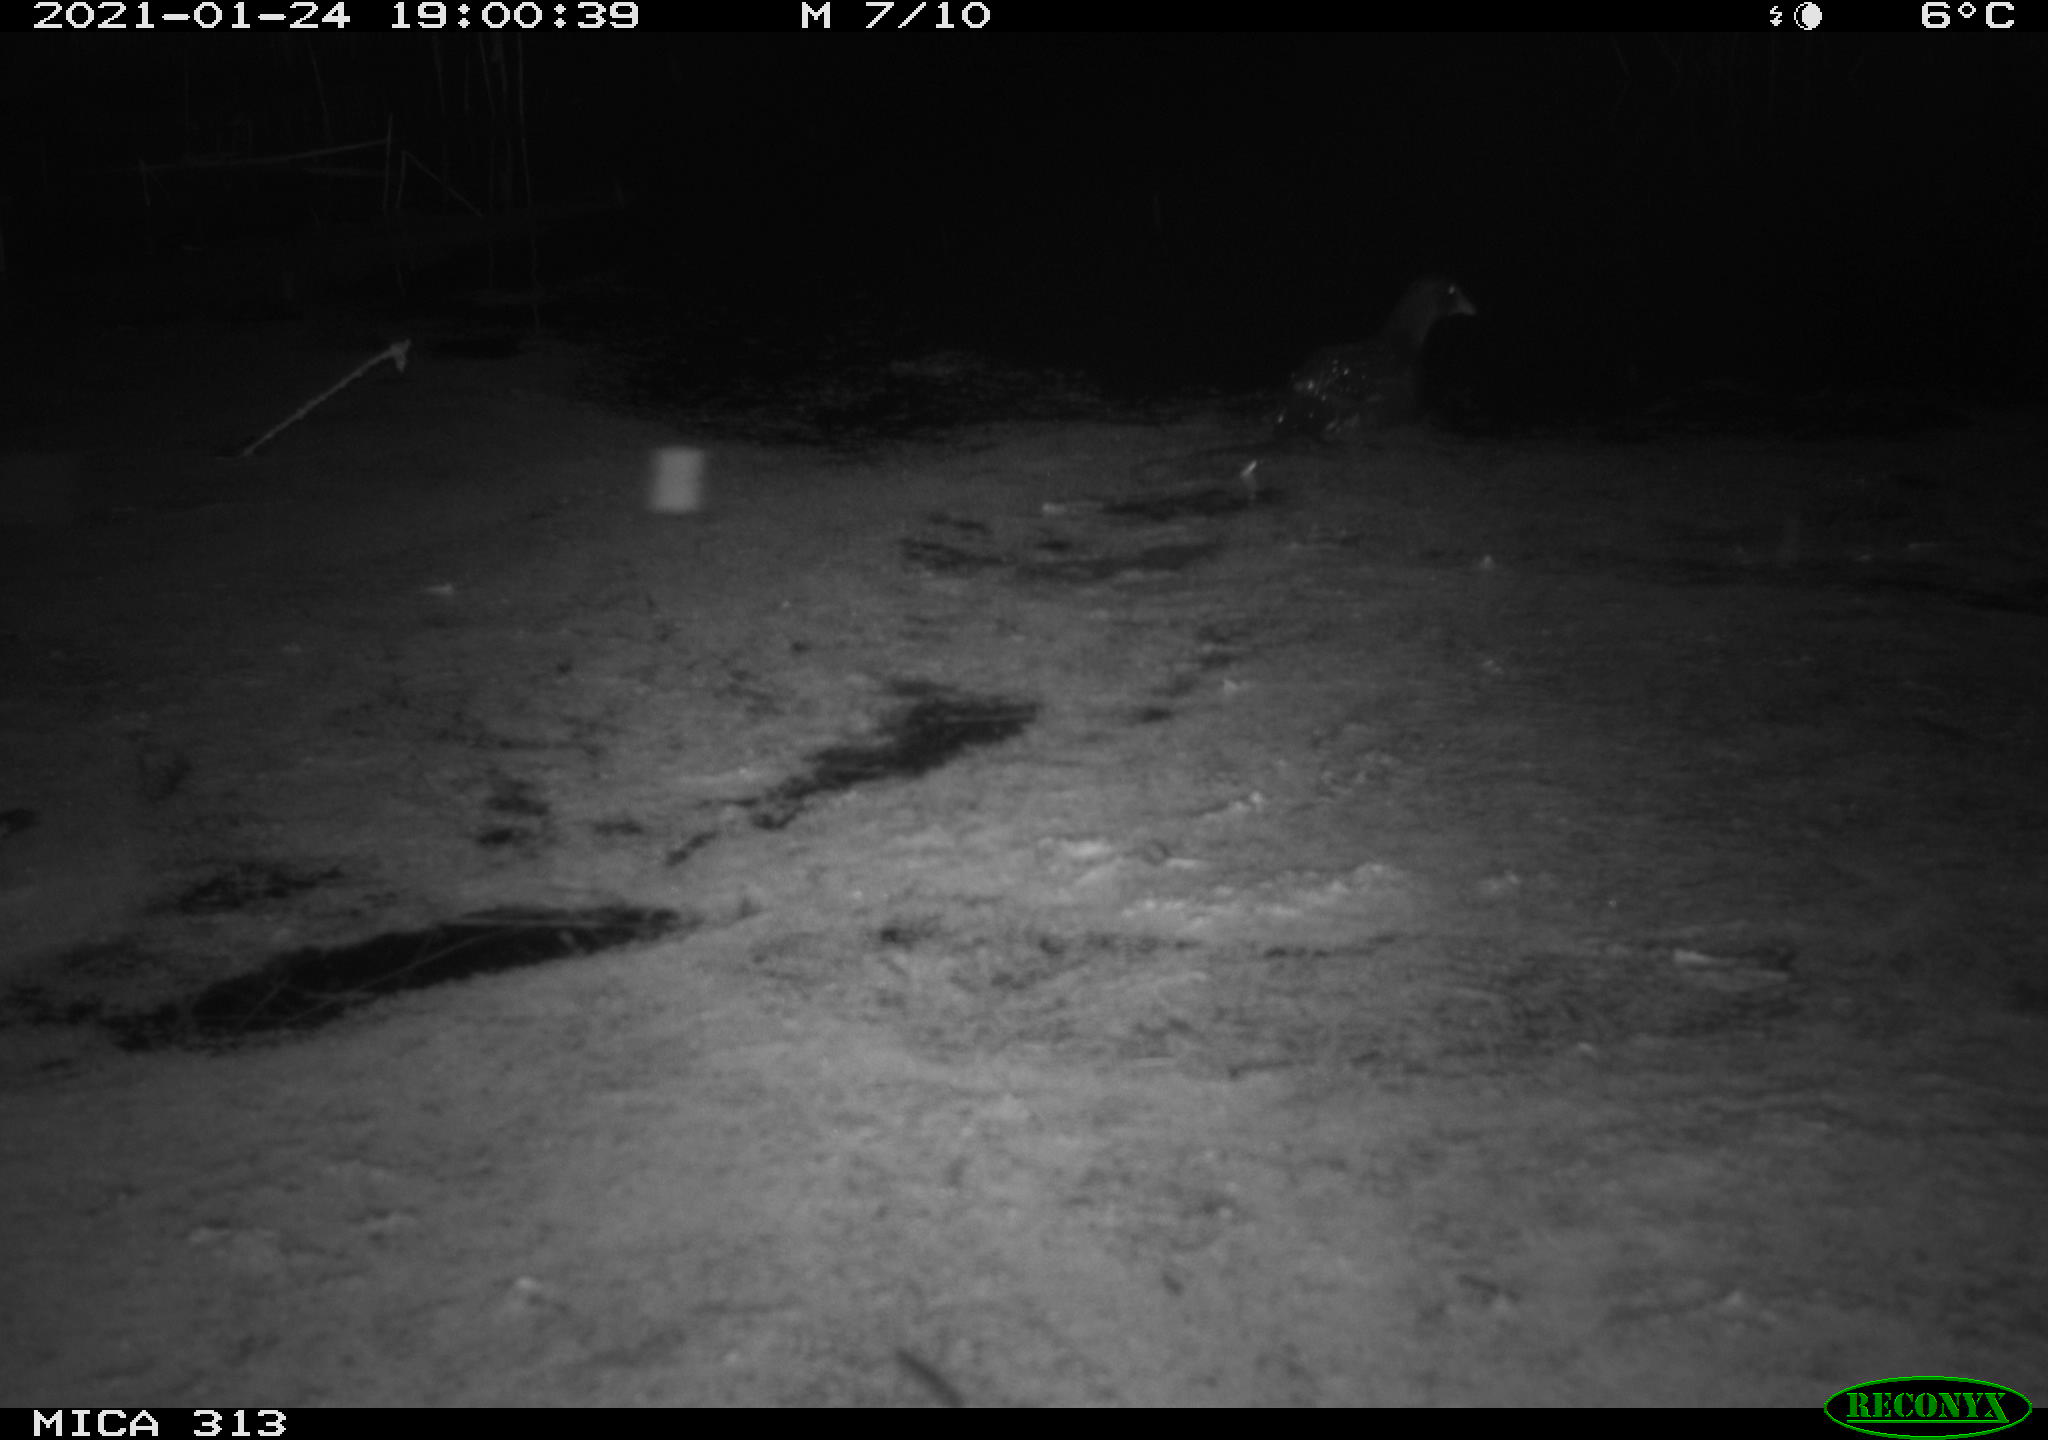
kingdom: Animalia
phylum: Chordata
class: Aves
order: Gruiformes
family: Rallidae
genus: Gallinula
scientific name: Gallinula chloropus
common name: Common moorhen
